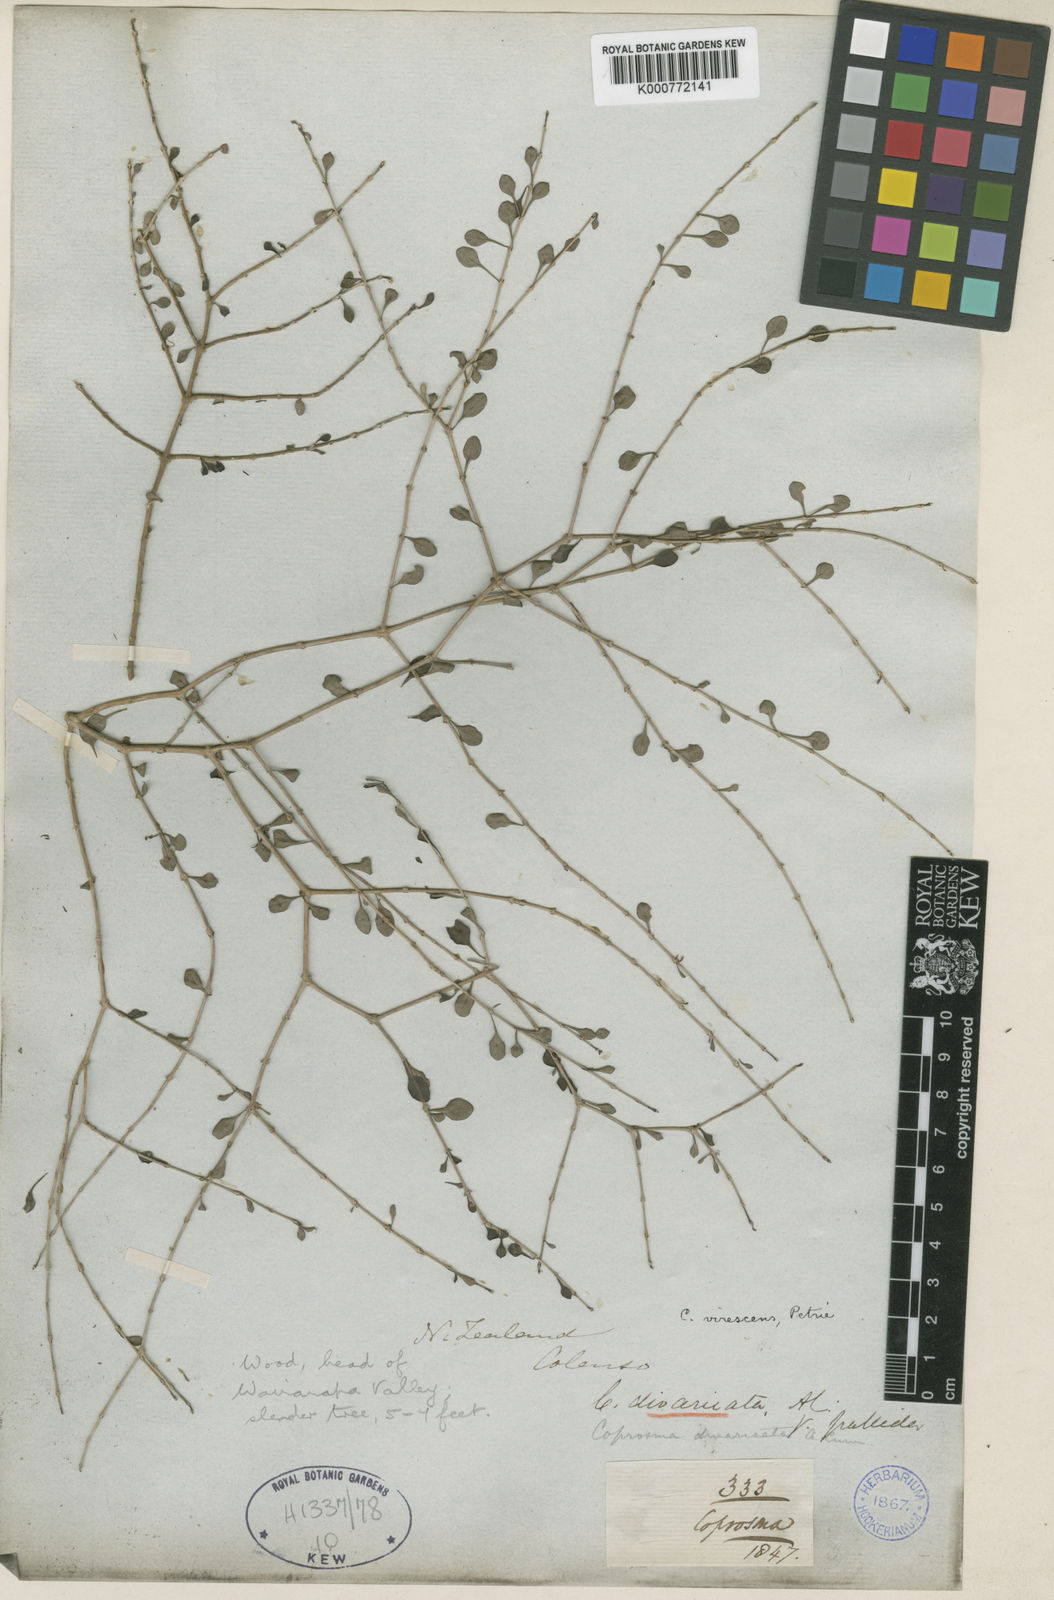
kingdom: Plantae
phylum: Tracheophyta
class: Magnoliopsida
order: Gentianales
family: Rubiaceae
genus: Coprosma
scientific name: Coprosma virescens
